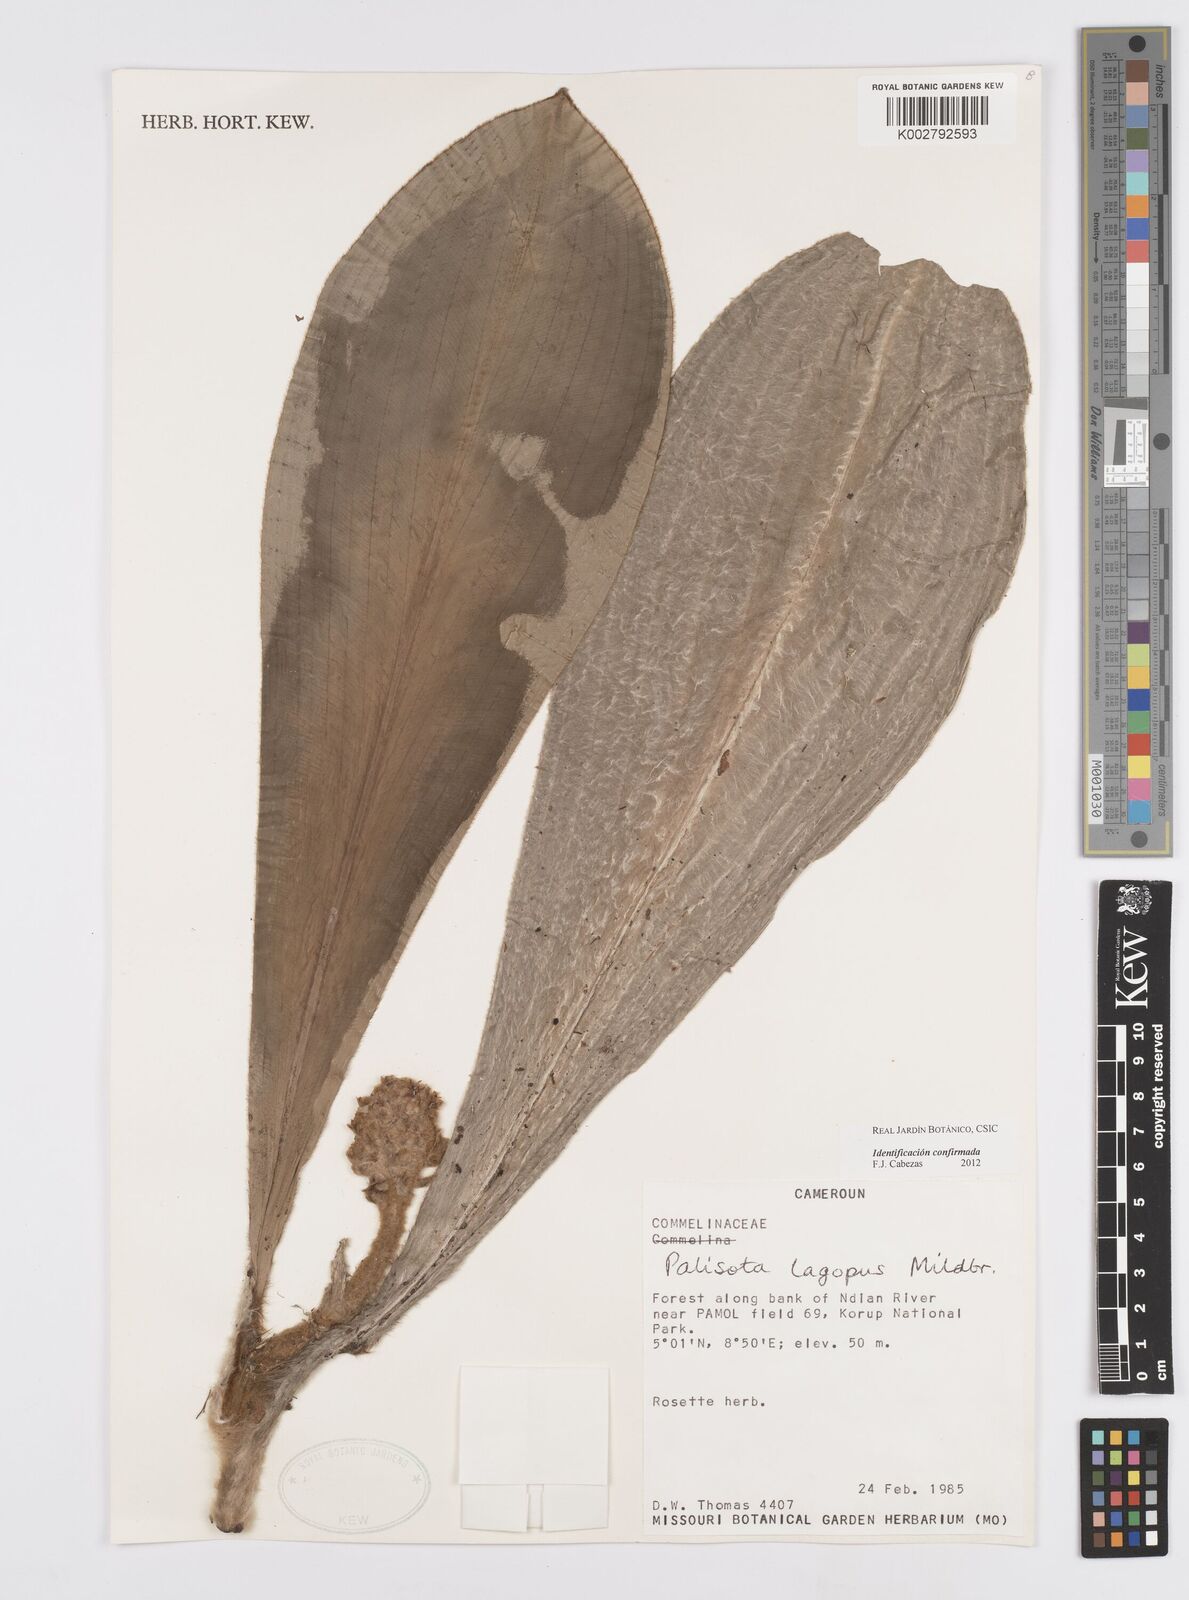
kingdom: Plantae
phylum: Tracheophyta
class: Liliopsida
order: Commelinales
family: Commelinaceae
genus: Palisota
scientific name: Palisota lagopus
